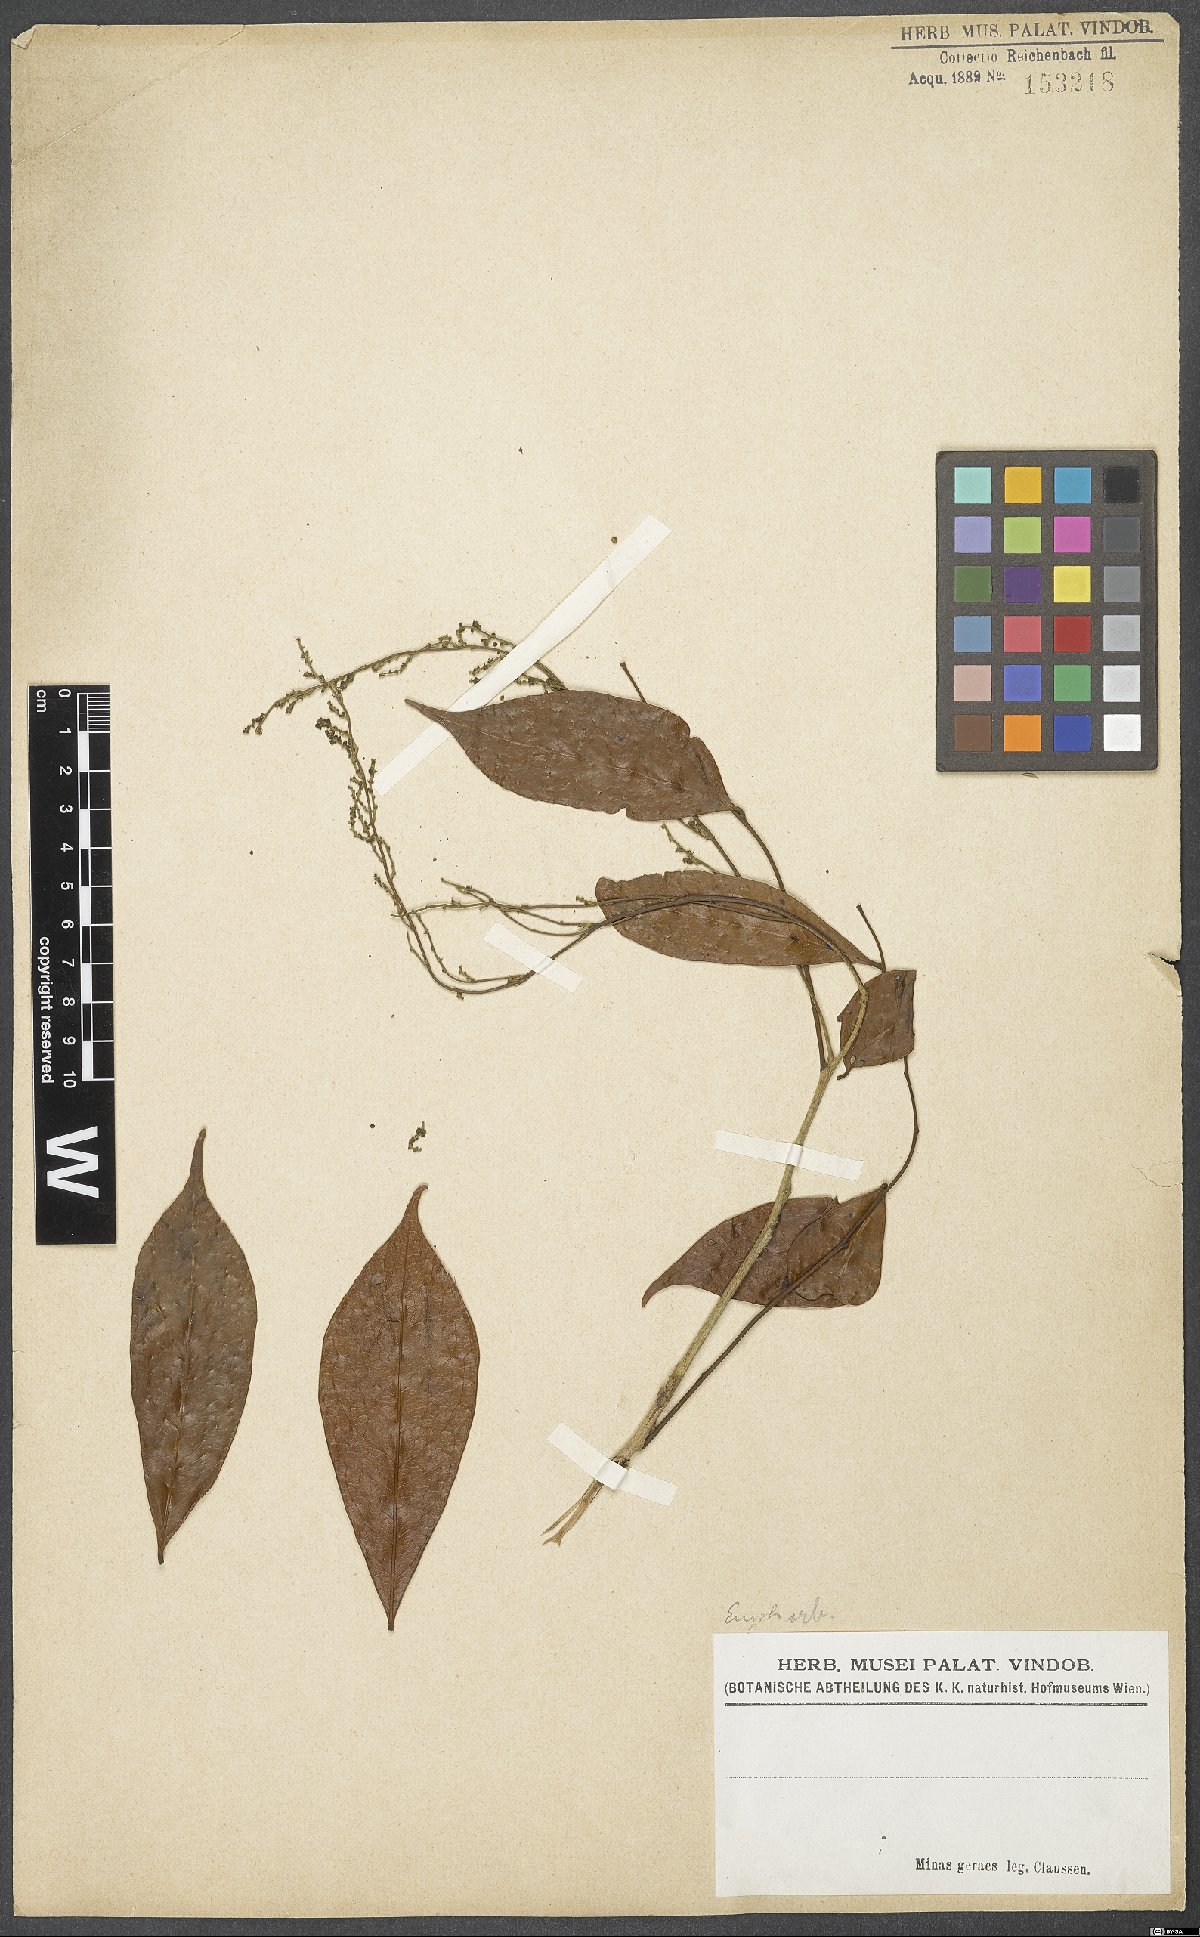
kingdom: Plantae
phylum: Tracheophyta
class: Magnoliopsida
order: Malpighiales
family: Euphorbiaceae
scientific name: Euphorbiaceae
